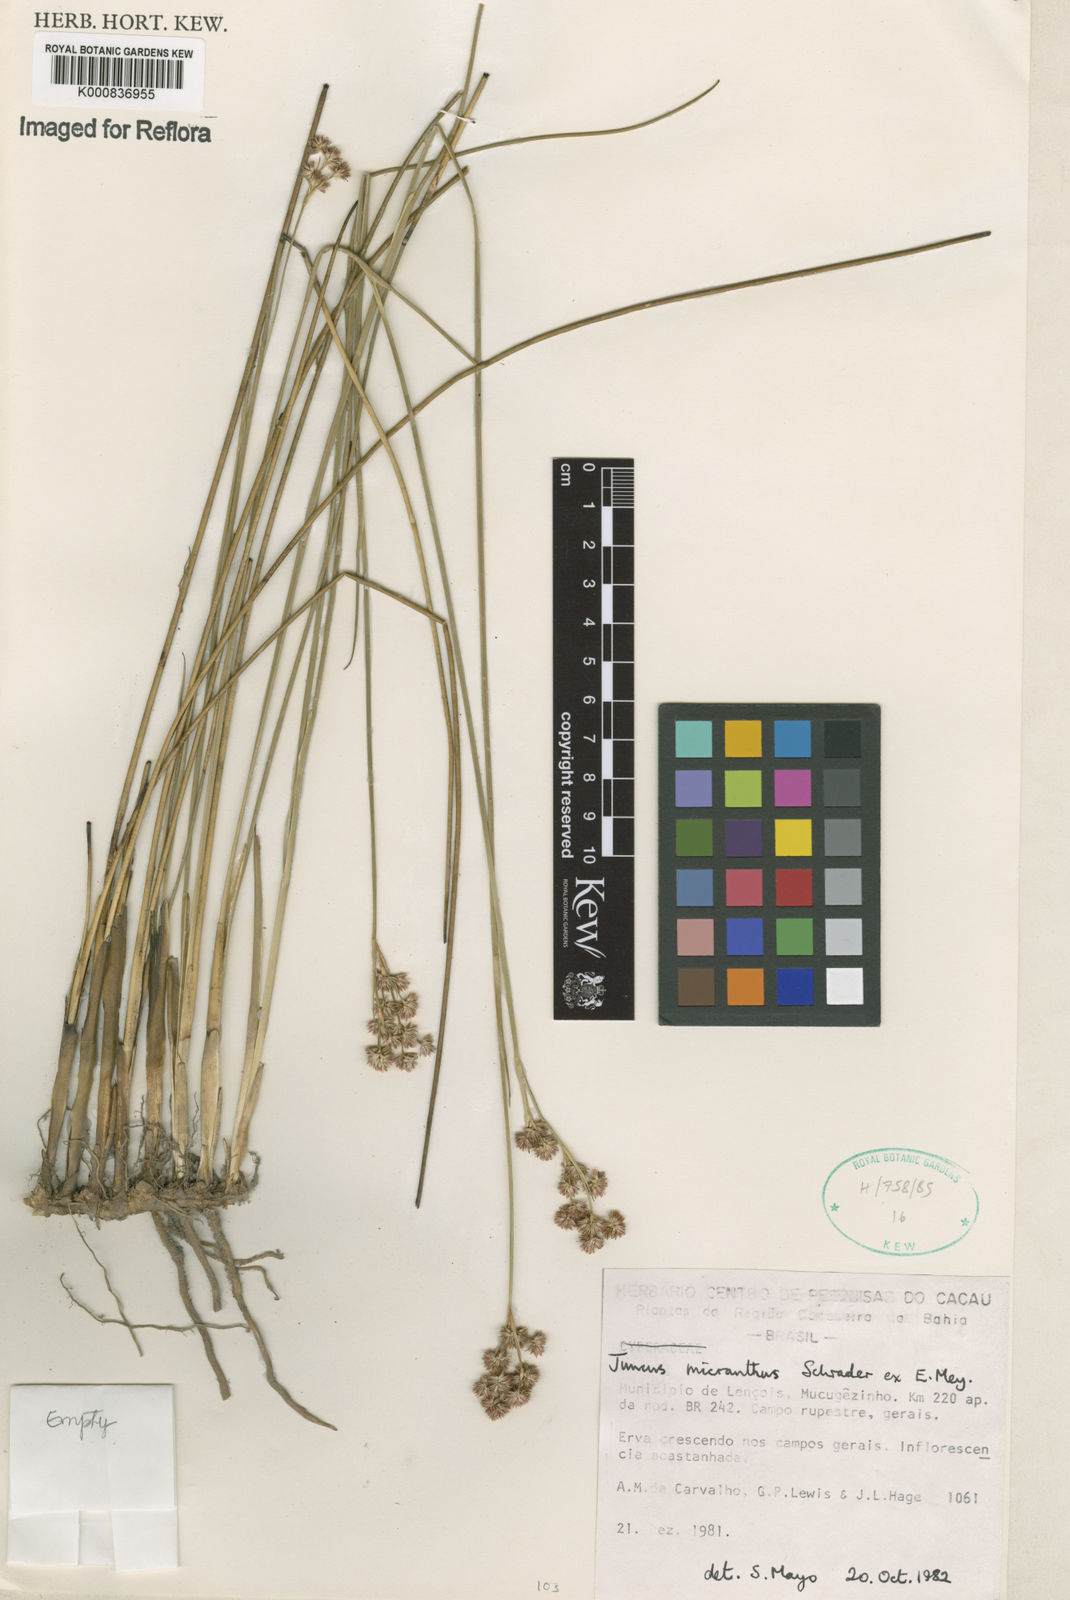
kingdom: Plantae
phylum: Tracheophyta
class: Liliopsida
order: Poales
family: Juncaceae
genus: Juncus
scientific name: Juncus
